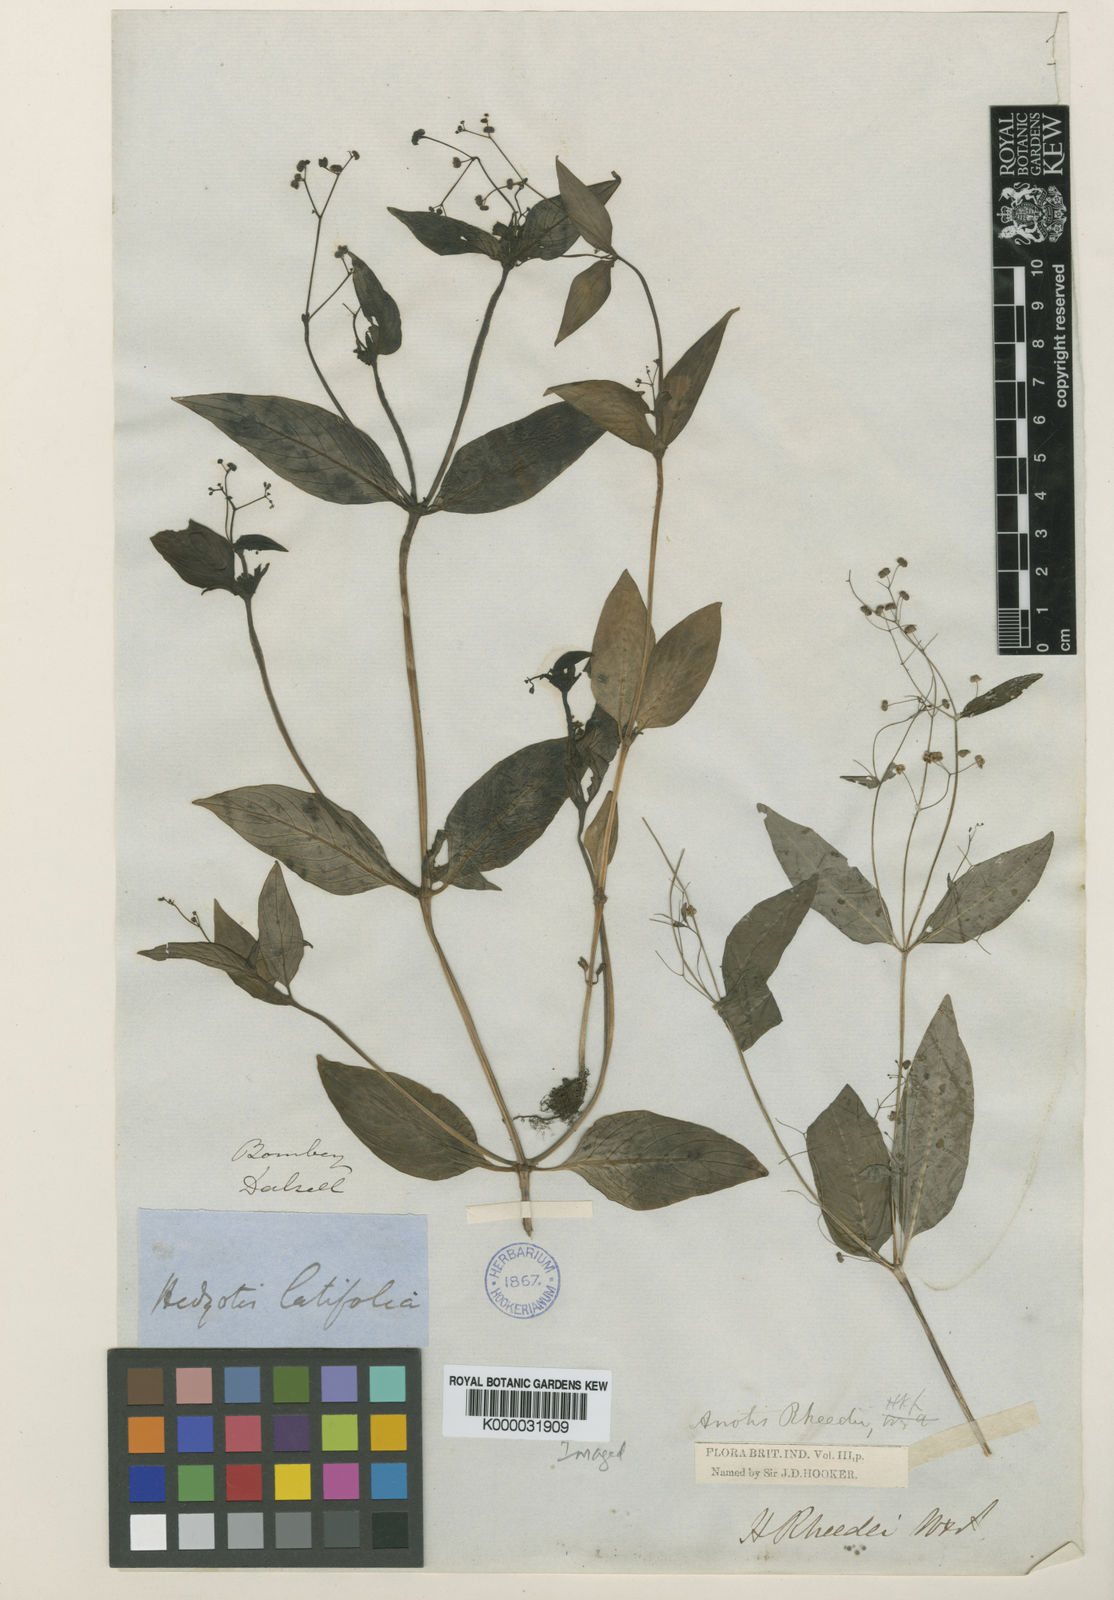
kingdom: Plantae
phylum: Tracheophyta
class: Magnoliopsida
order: Gentianales
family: Rubiaceae
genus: Neanotis
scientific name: Neanotis rheedei
